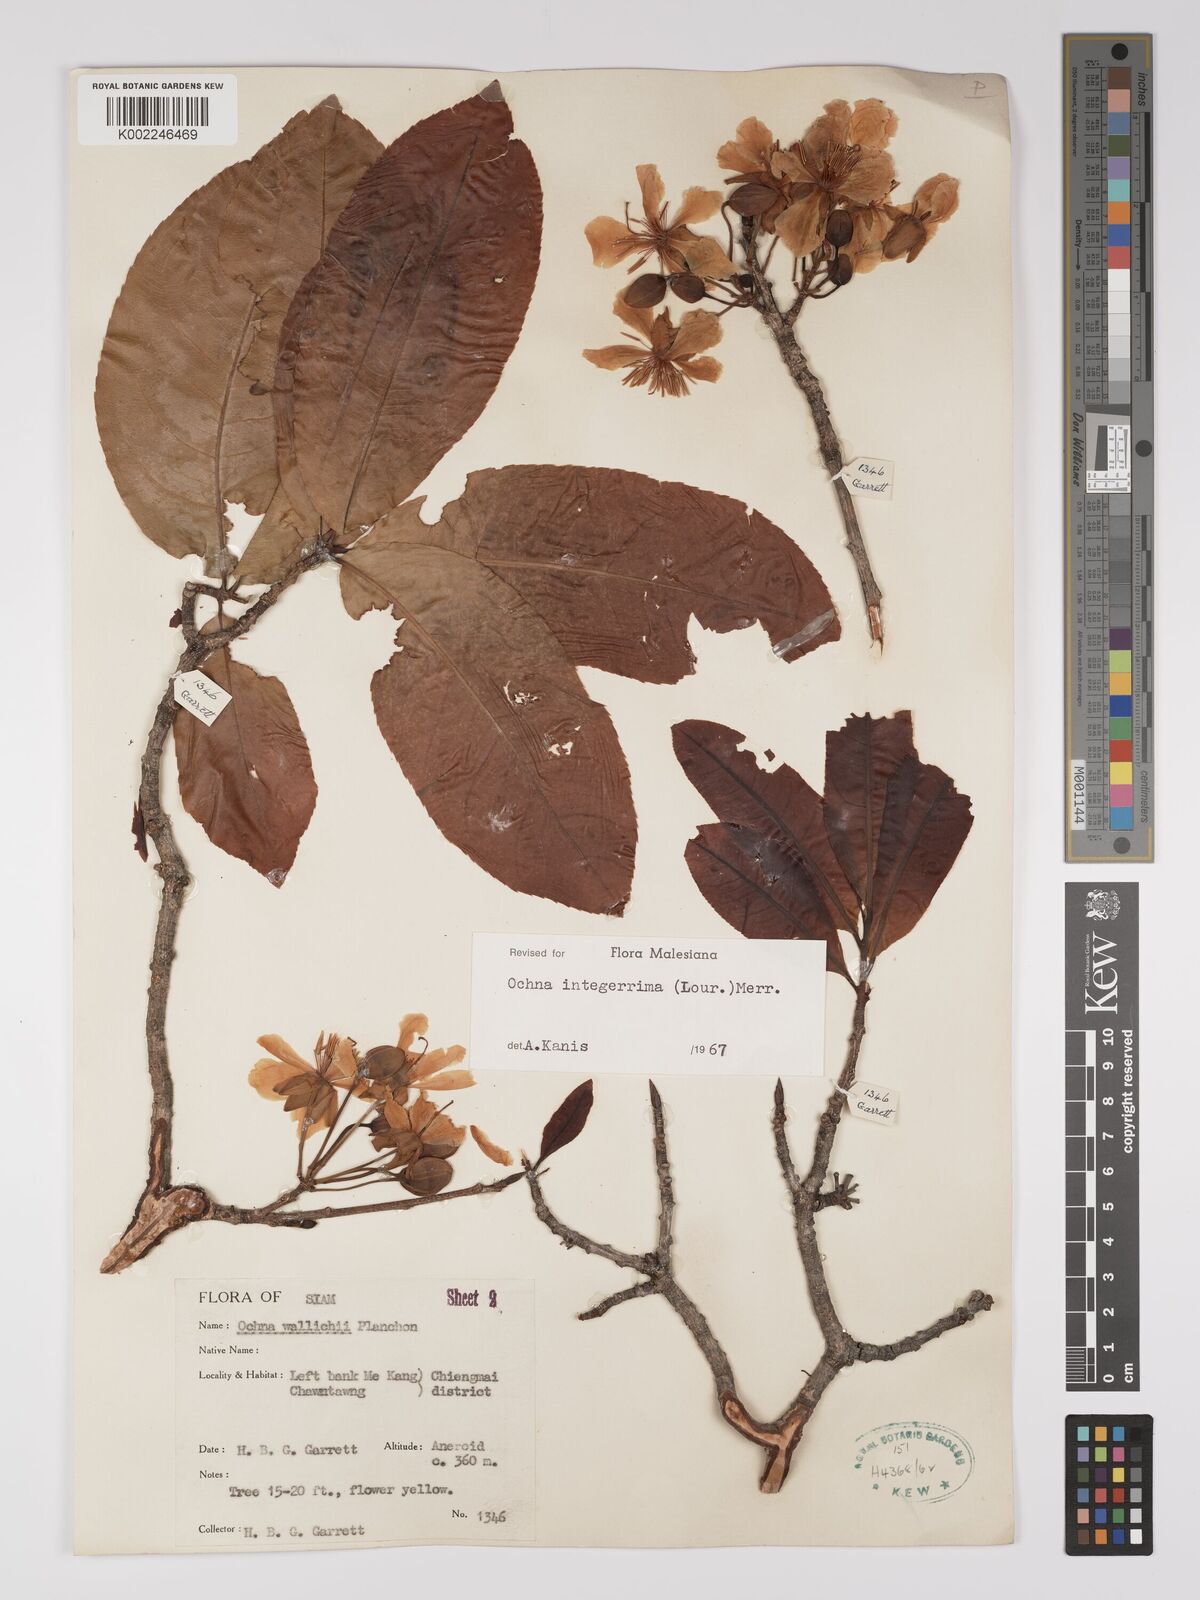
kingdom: Plantae
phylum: Tracheophyta
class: Magnoliopsida
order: Malpighiales
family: Ochnaceae
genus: Ochna
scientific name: Ochna integerrima
